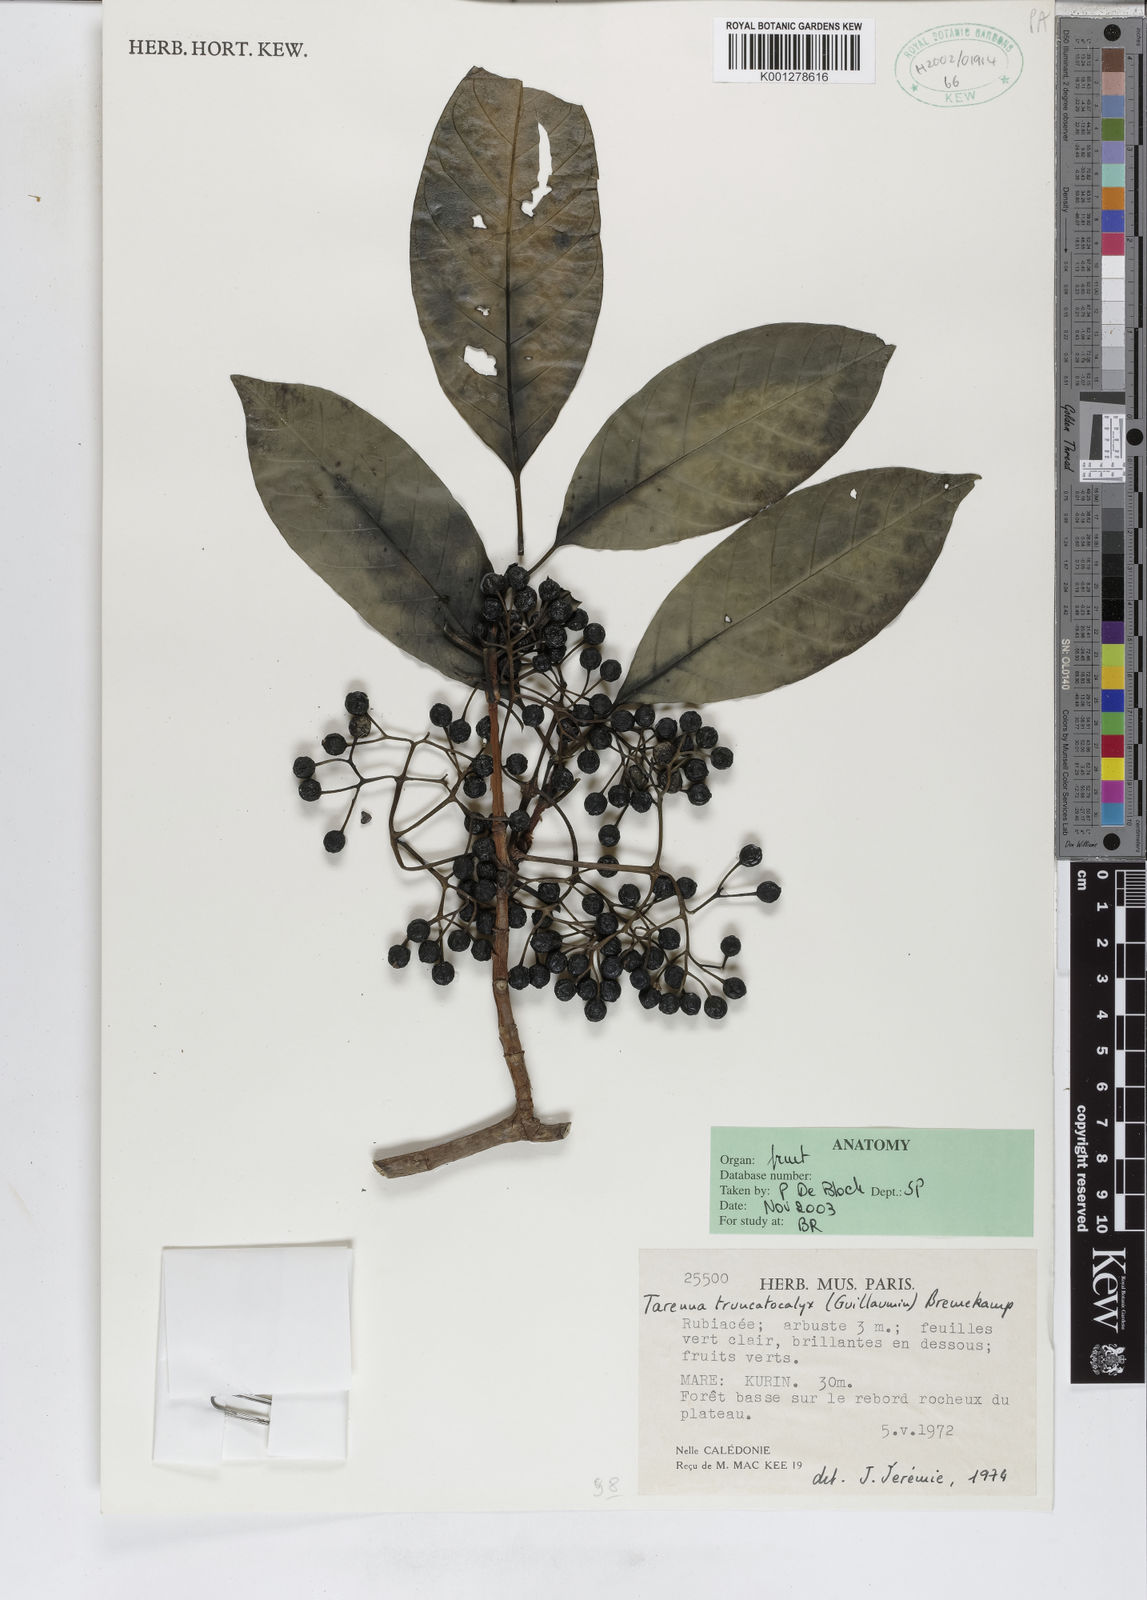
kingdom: Plantae
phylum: Tracheophyta
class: Magnoliopsida
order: Gentianales
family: Rubiaceae
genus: Tarenna
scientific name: Tarenna truncatocalyx
